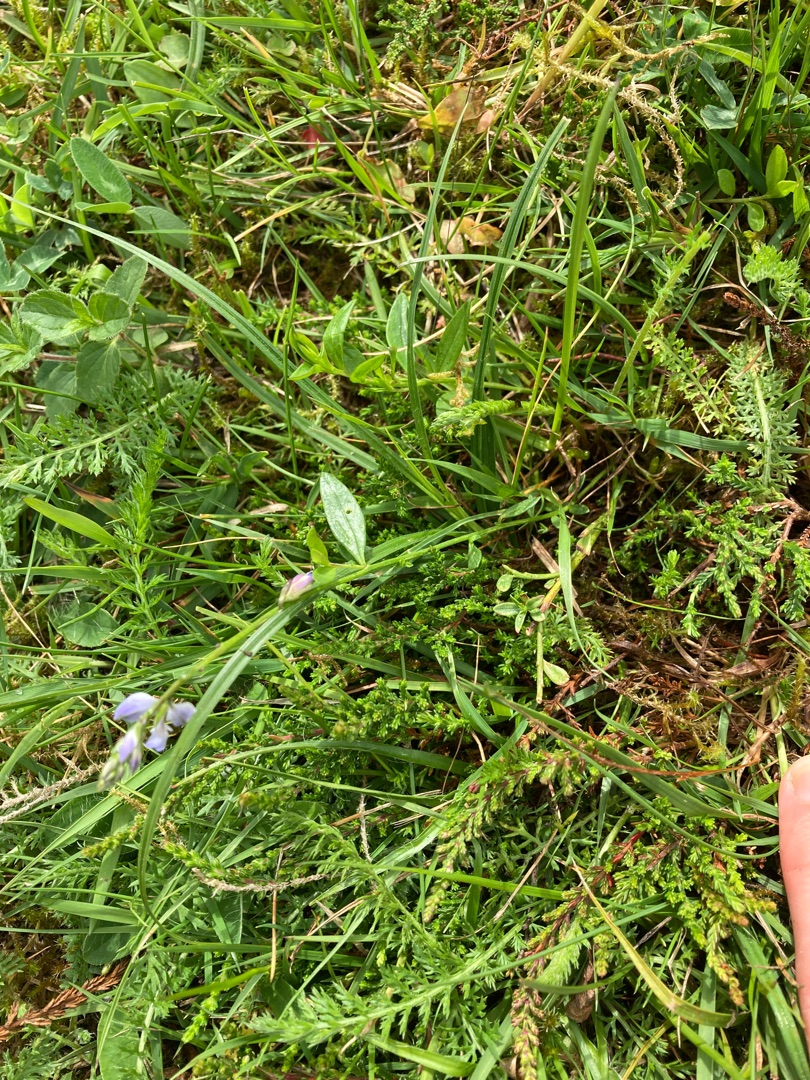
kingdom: Plantae
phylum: Tracheophyta
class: Magnoliopsida
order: Fabales
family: Polygalaceae
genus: Polygala
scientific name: Polygala vulgaris
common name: Almindelig mælkeurt
